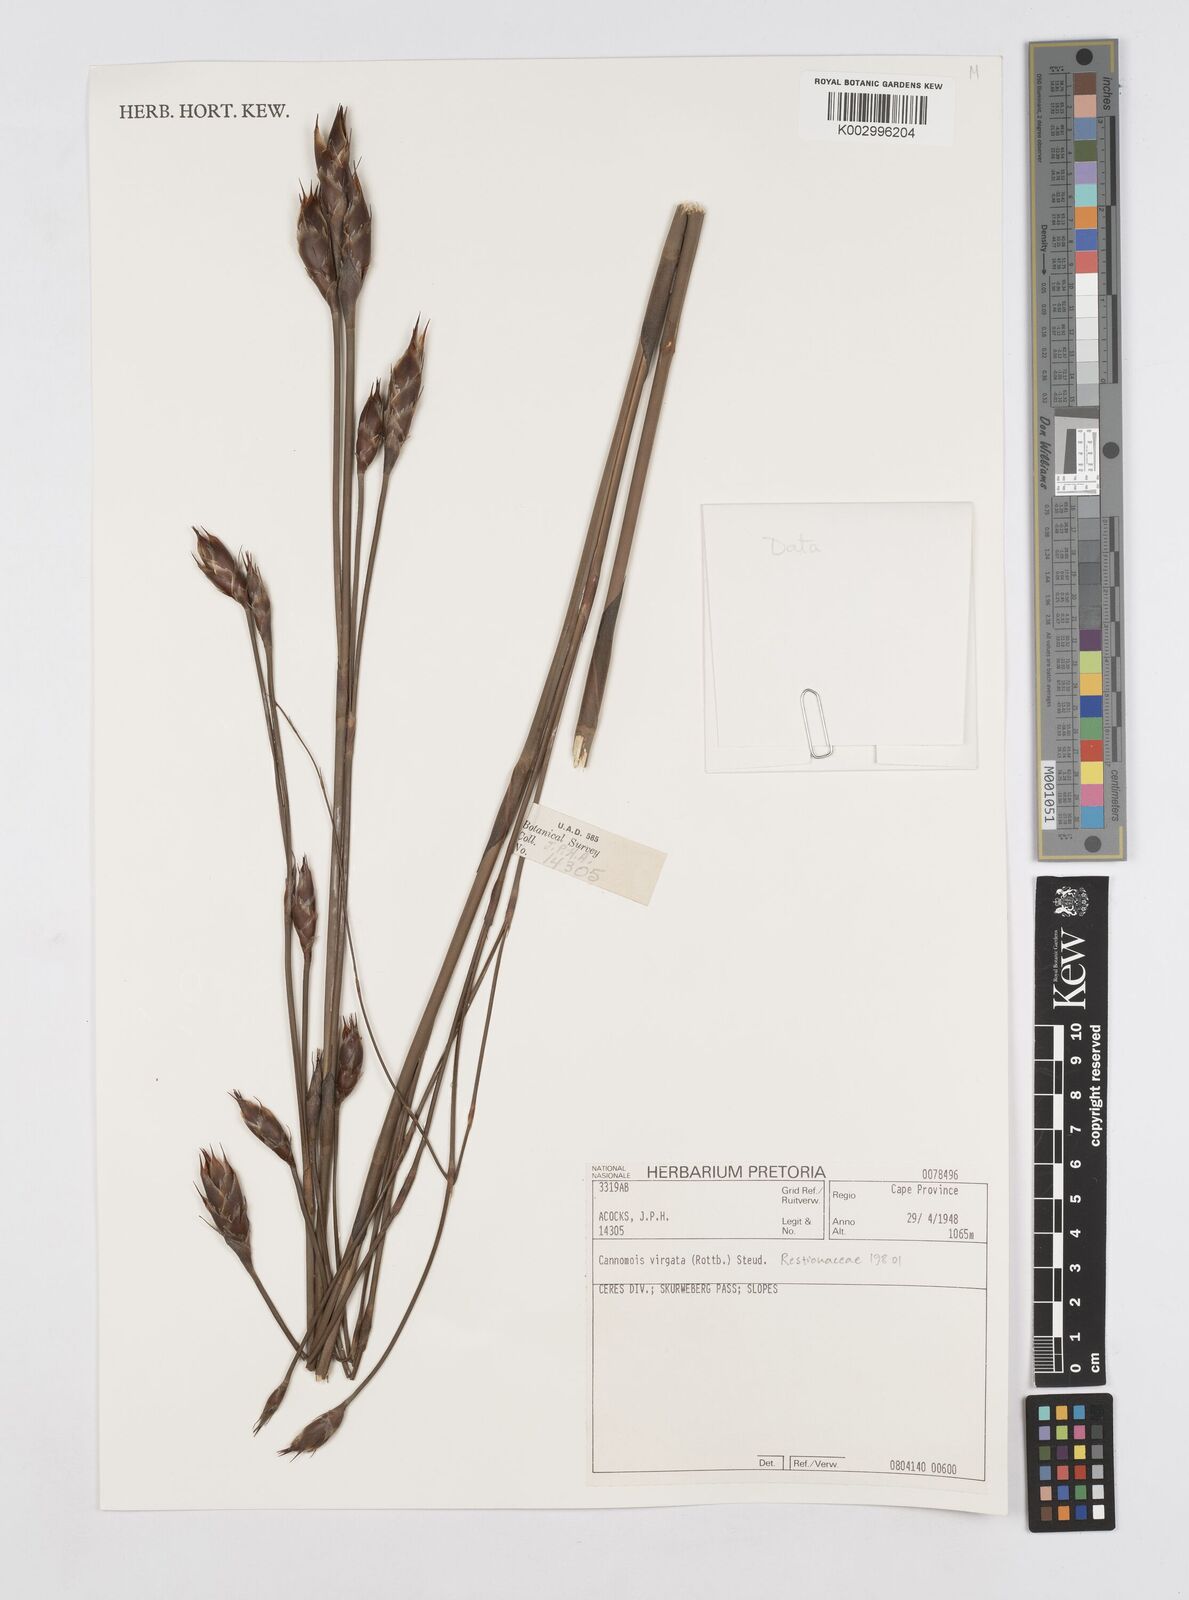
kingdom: Plantae
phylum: Tracheophyta
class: Liliopsida
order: Poales
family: Restionaceae
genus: Cannomois
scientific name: Cannomois virgata
